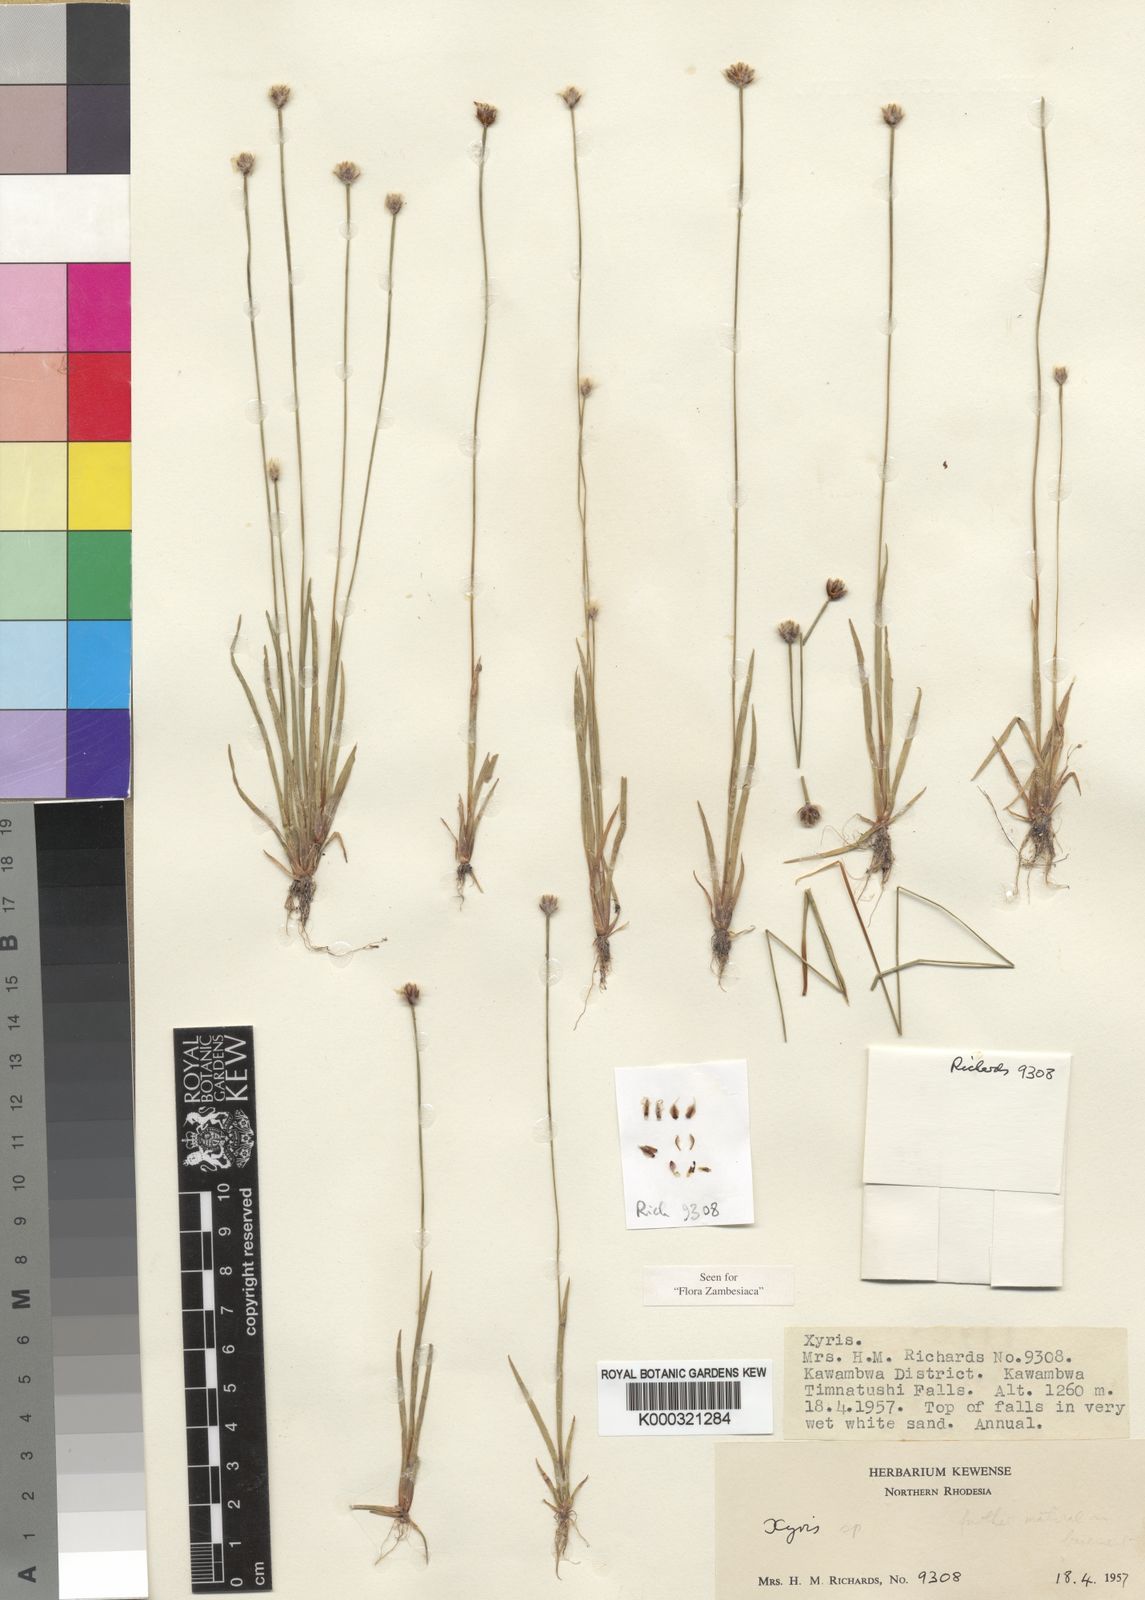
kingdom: Plantae
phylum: Tracheophyta
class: Liliopsida
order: Poales
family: Xyridaceae
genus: Xyris
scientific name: Xyris laniceps
